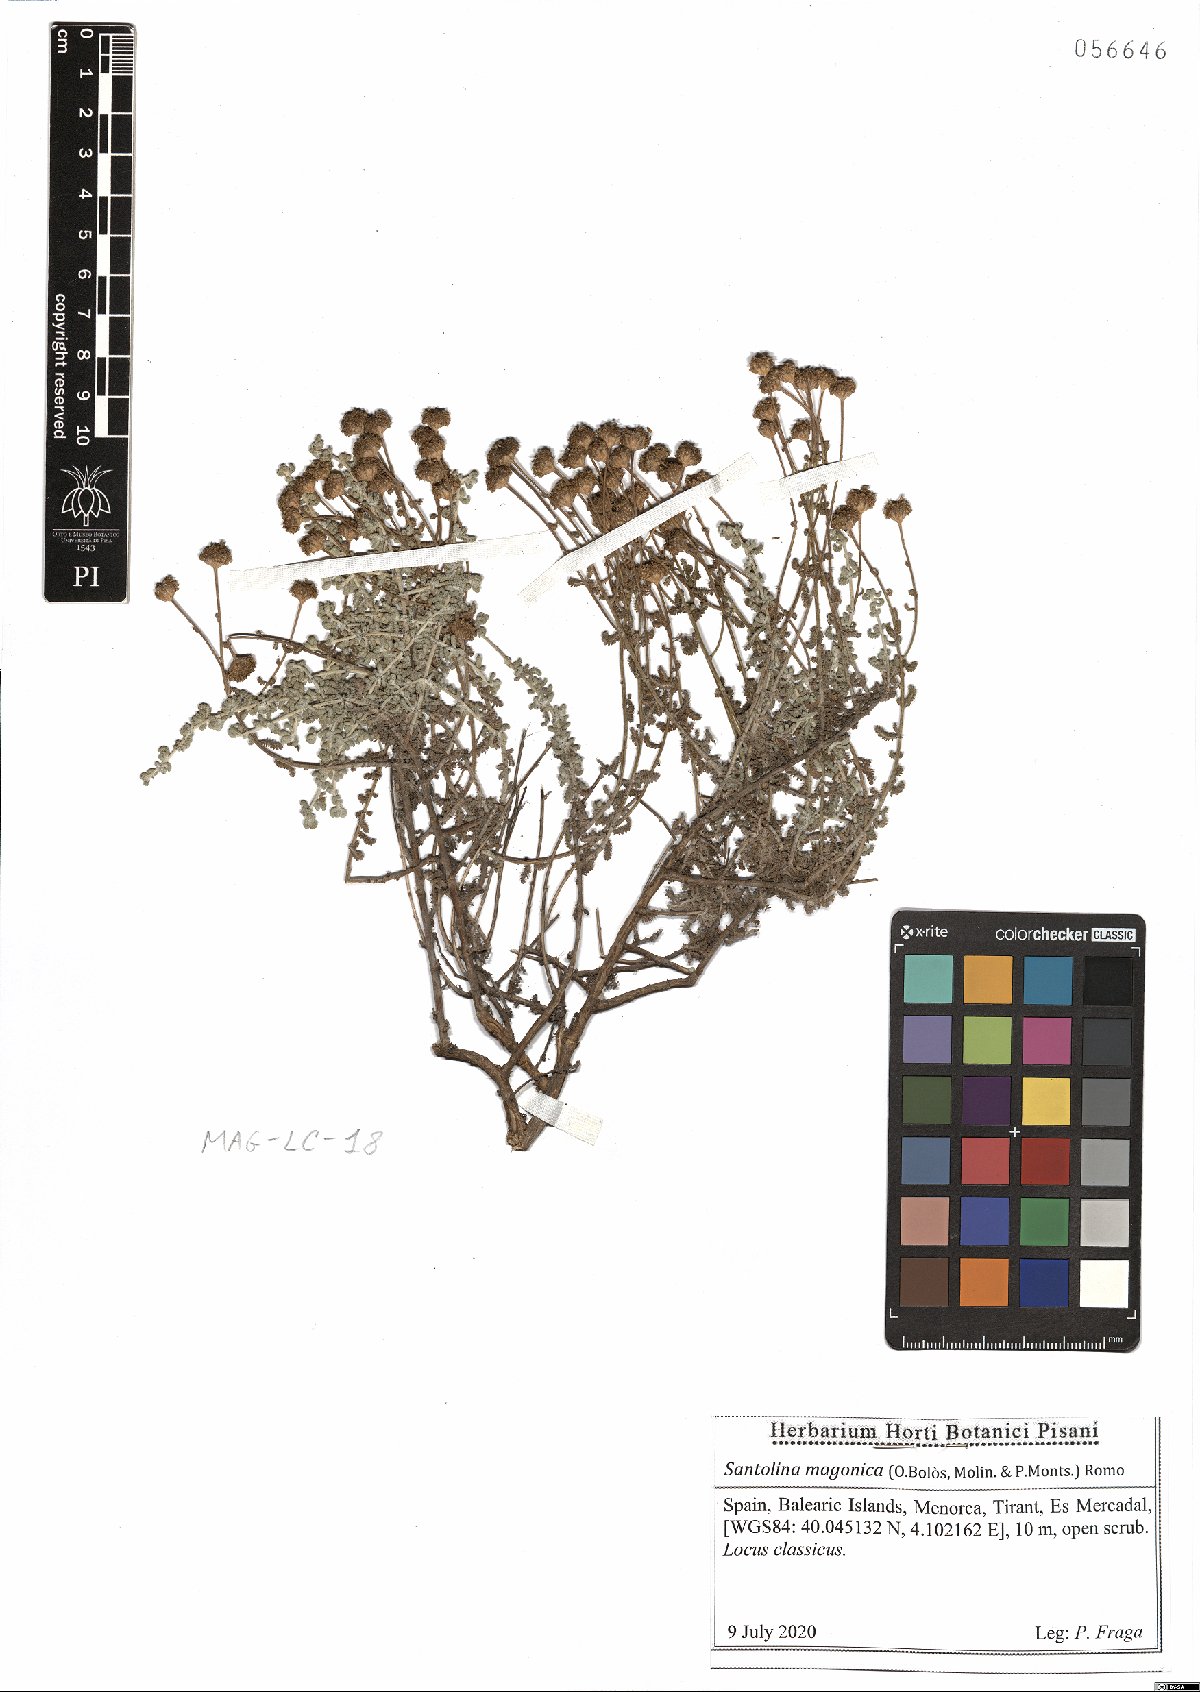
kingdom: Plantae
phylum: Tracheophyta
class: Magnoliopsida
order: Asterales
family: Asteraceae
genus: Santolina
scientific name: Santolina magonica
